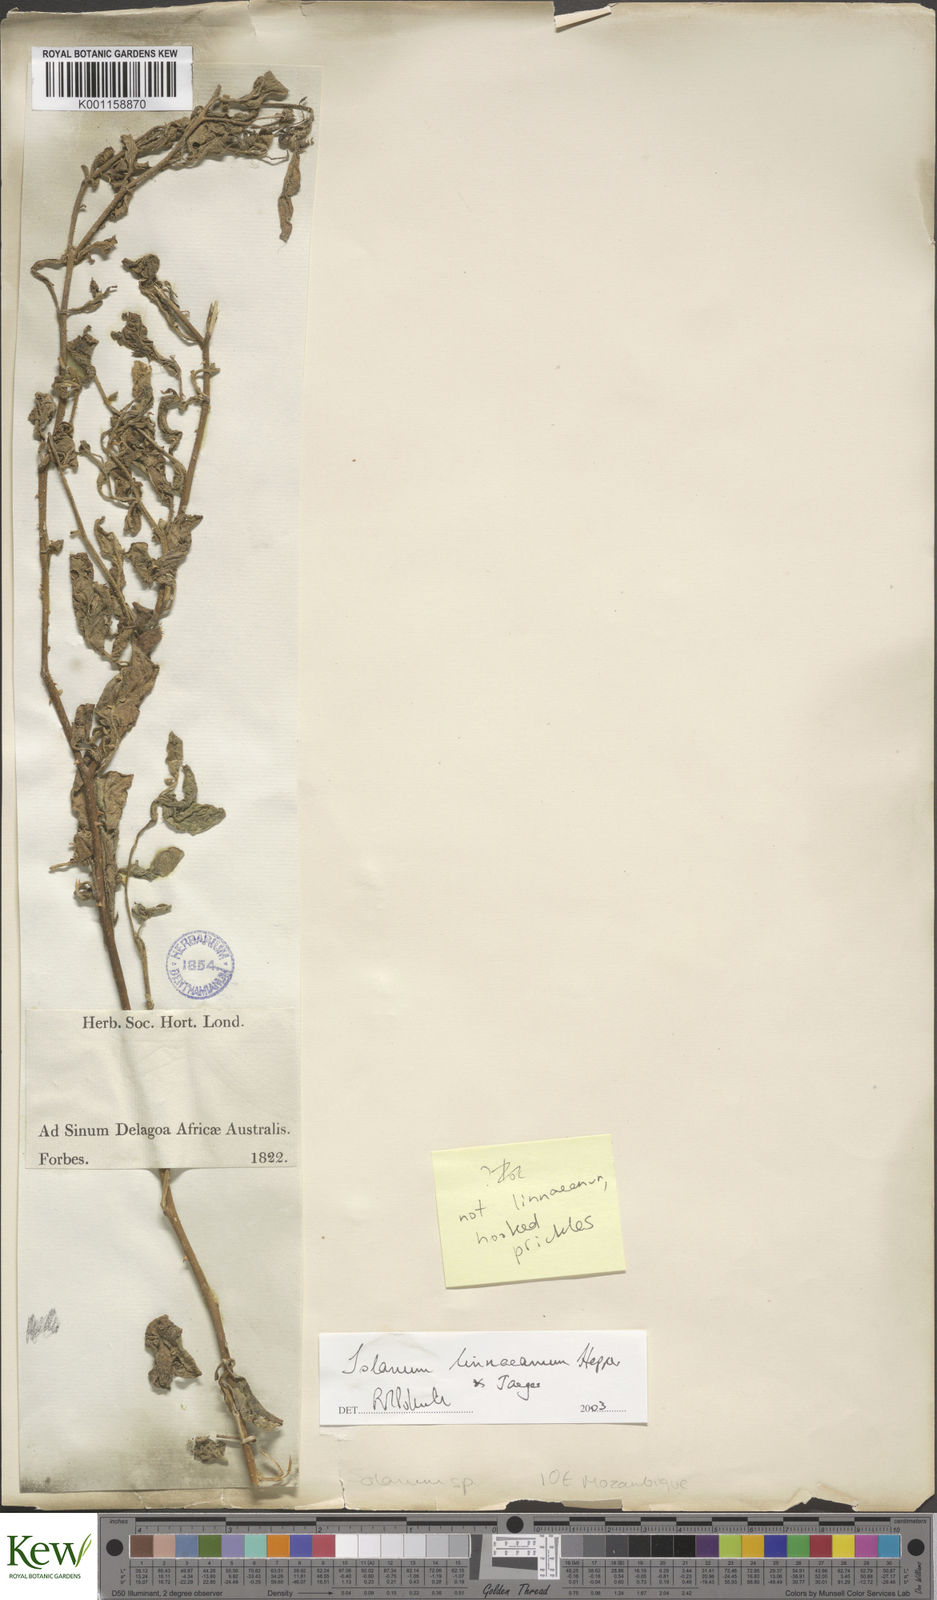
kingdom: Plantae
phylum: Tracheophyta
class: Magnoliopsida
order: Solanales
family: Solanaceae
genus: Solanum
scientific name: Solanum
